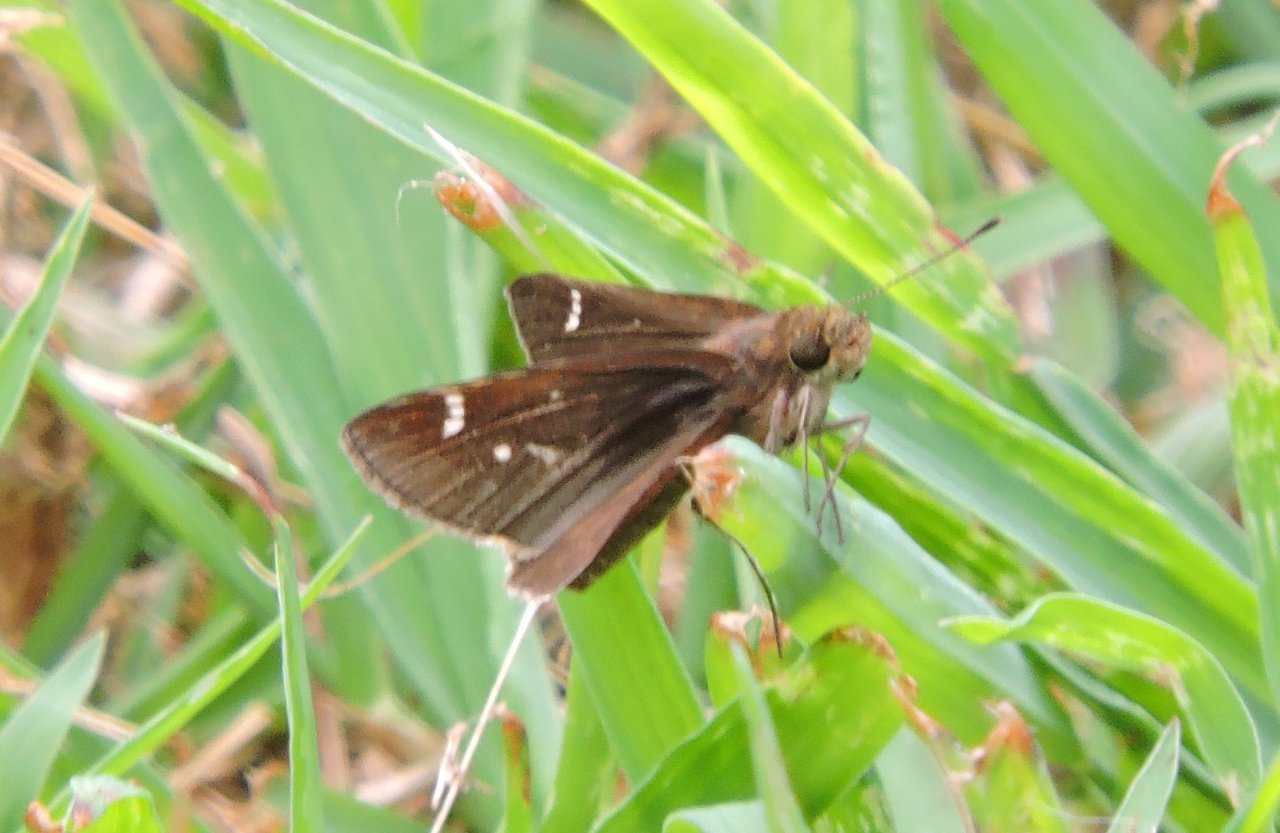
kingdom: Animalia
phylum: Arthropoda
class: Insecta
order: Lepidoptera
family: Hesperiidae
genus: Lerema
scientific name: Lerema accius
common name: Clouded Skipper
